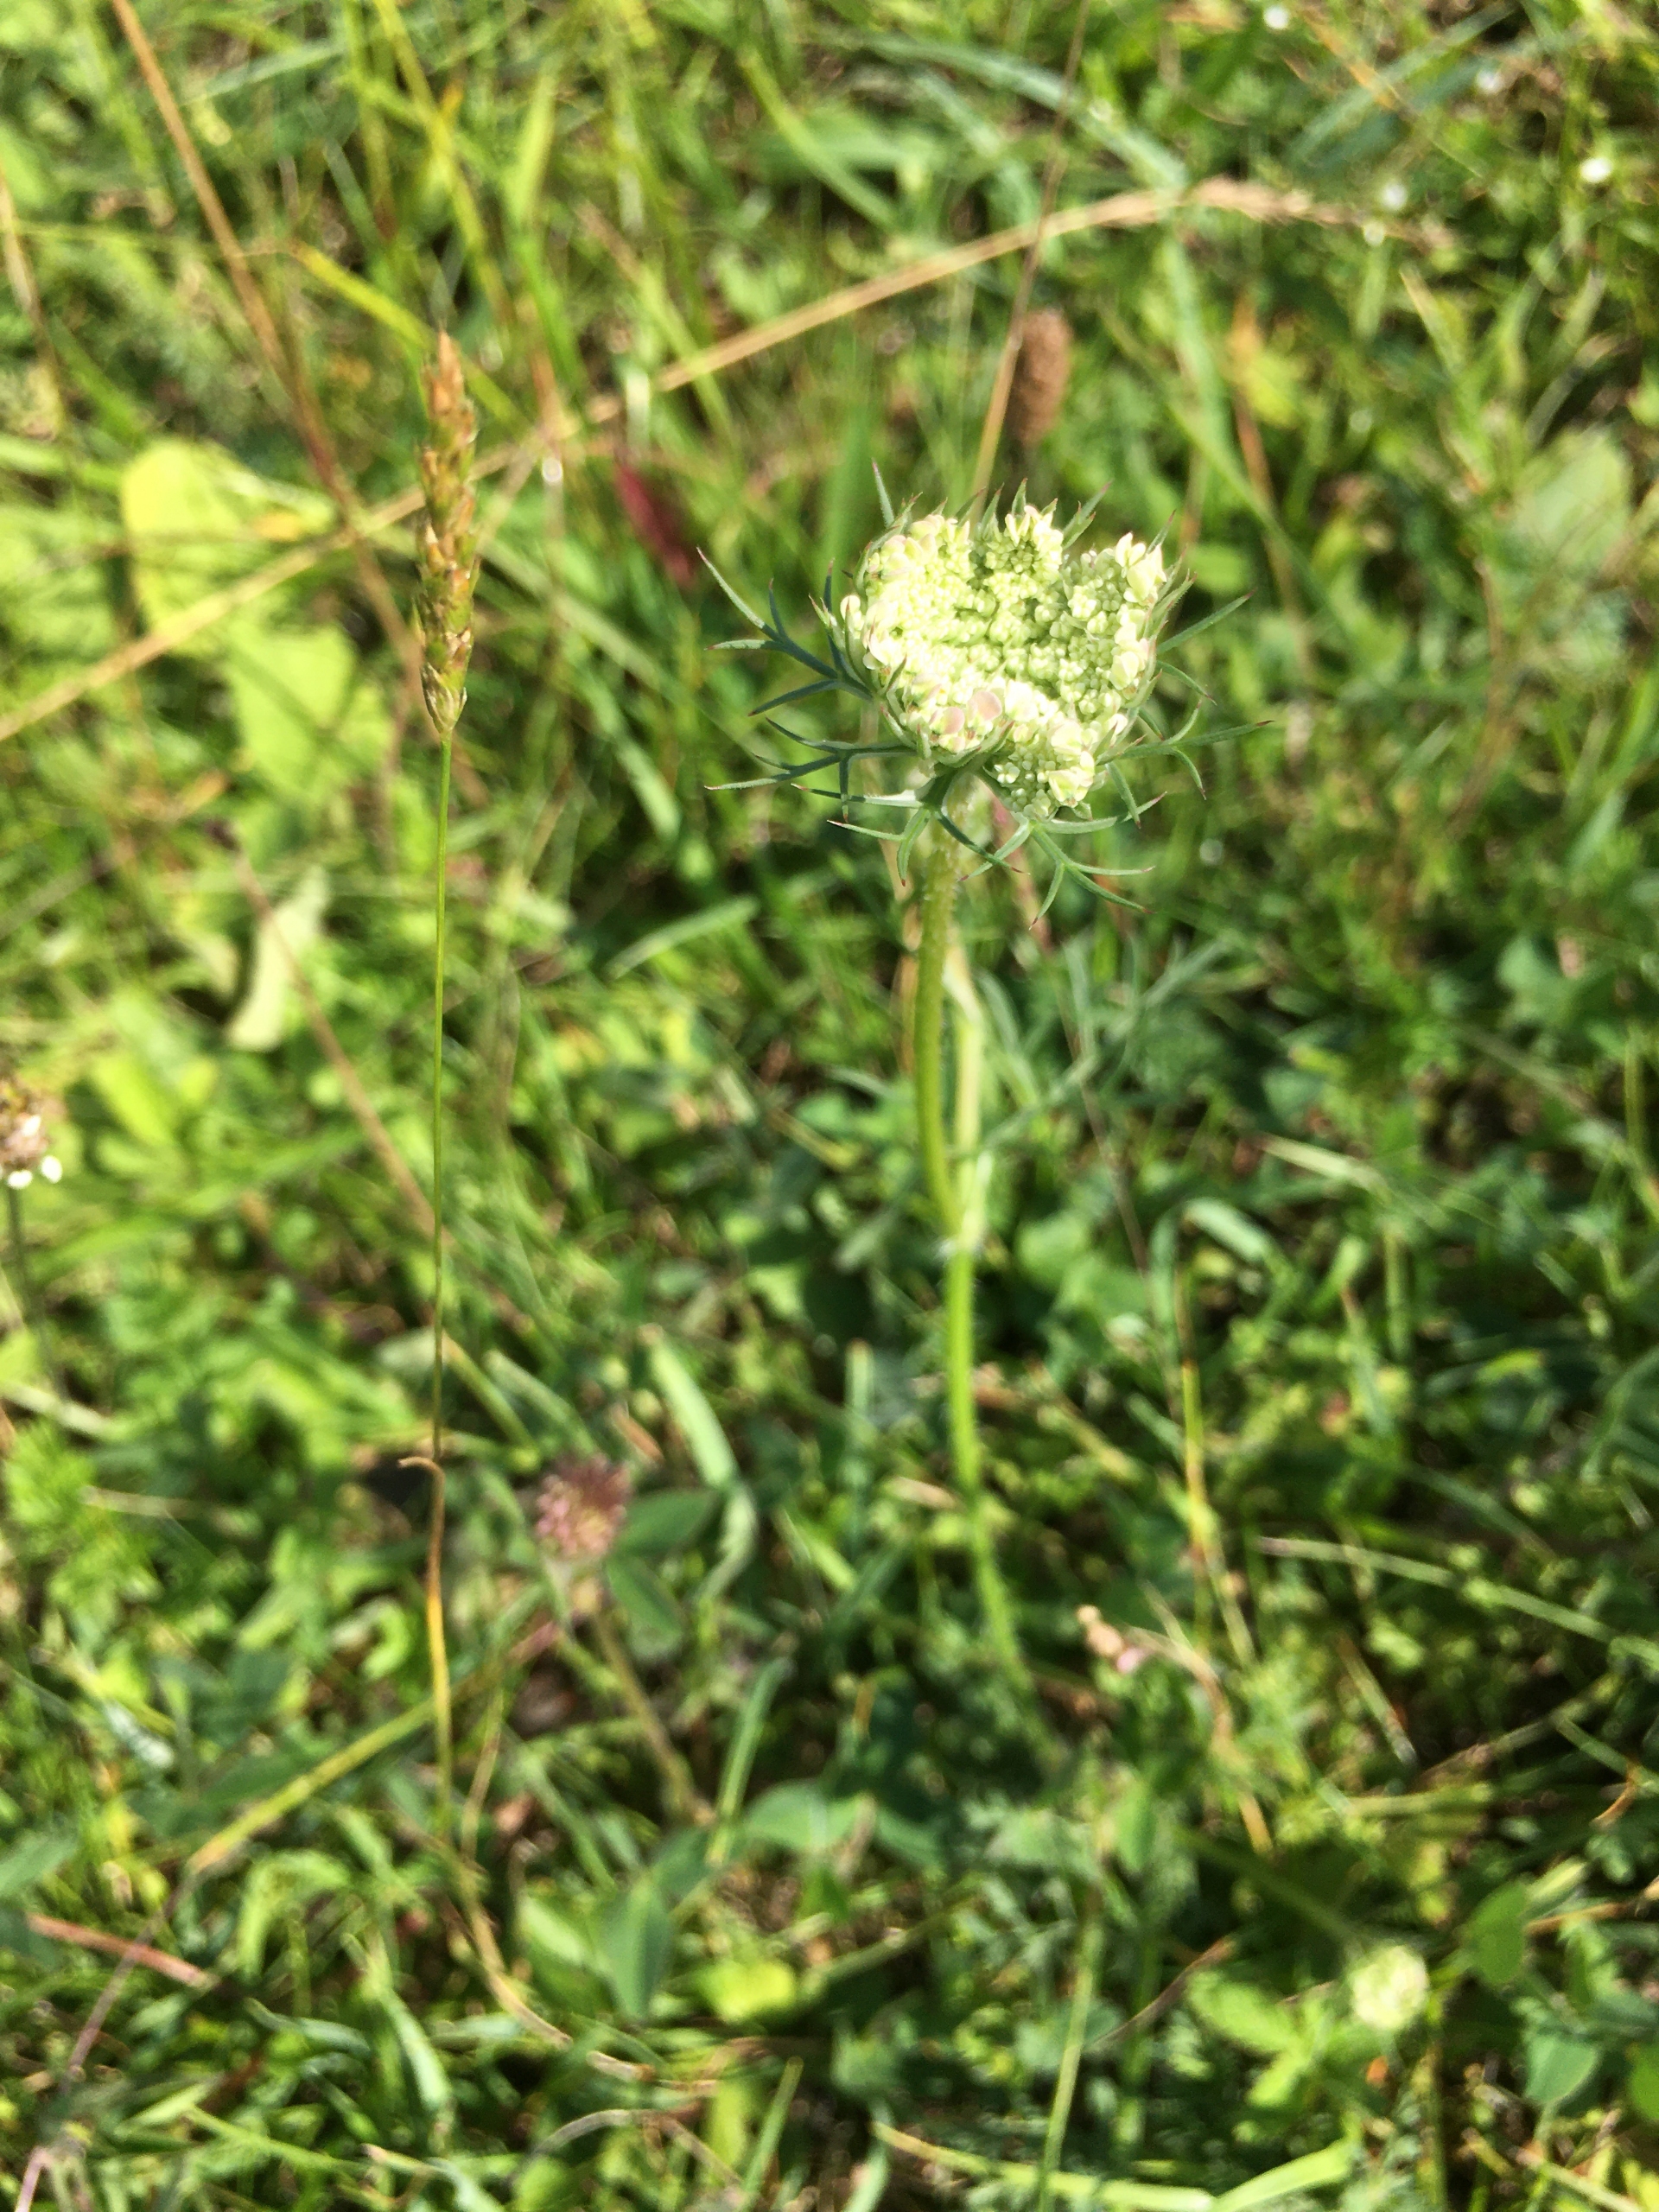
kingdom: Plantae
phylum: Tracheophyta
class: Magnoliopsida
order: Apiales
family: Apiaceae
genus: Daucus
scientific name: Daucus carota
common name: Vild gulerod
